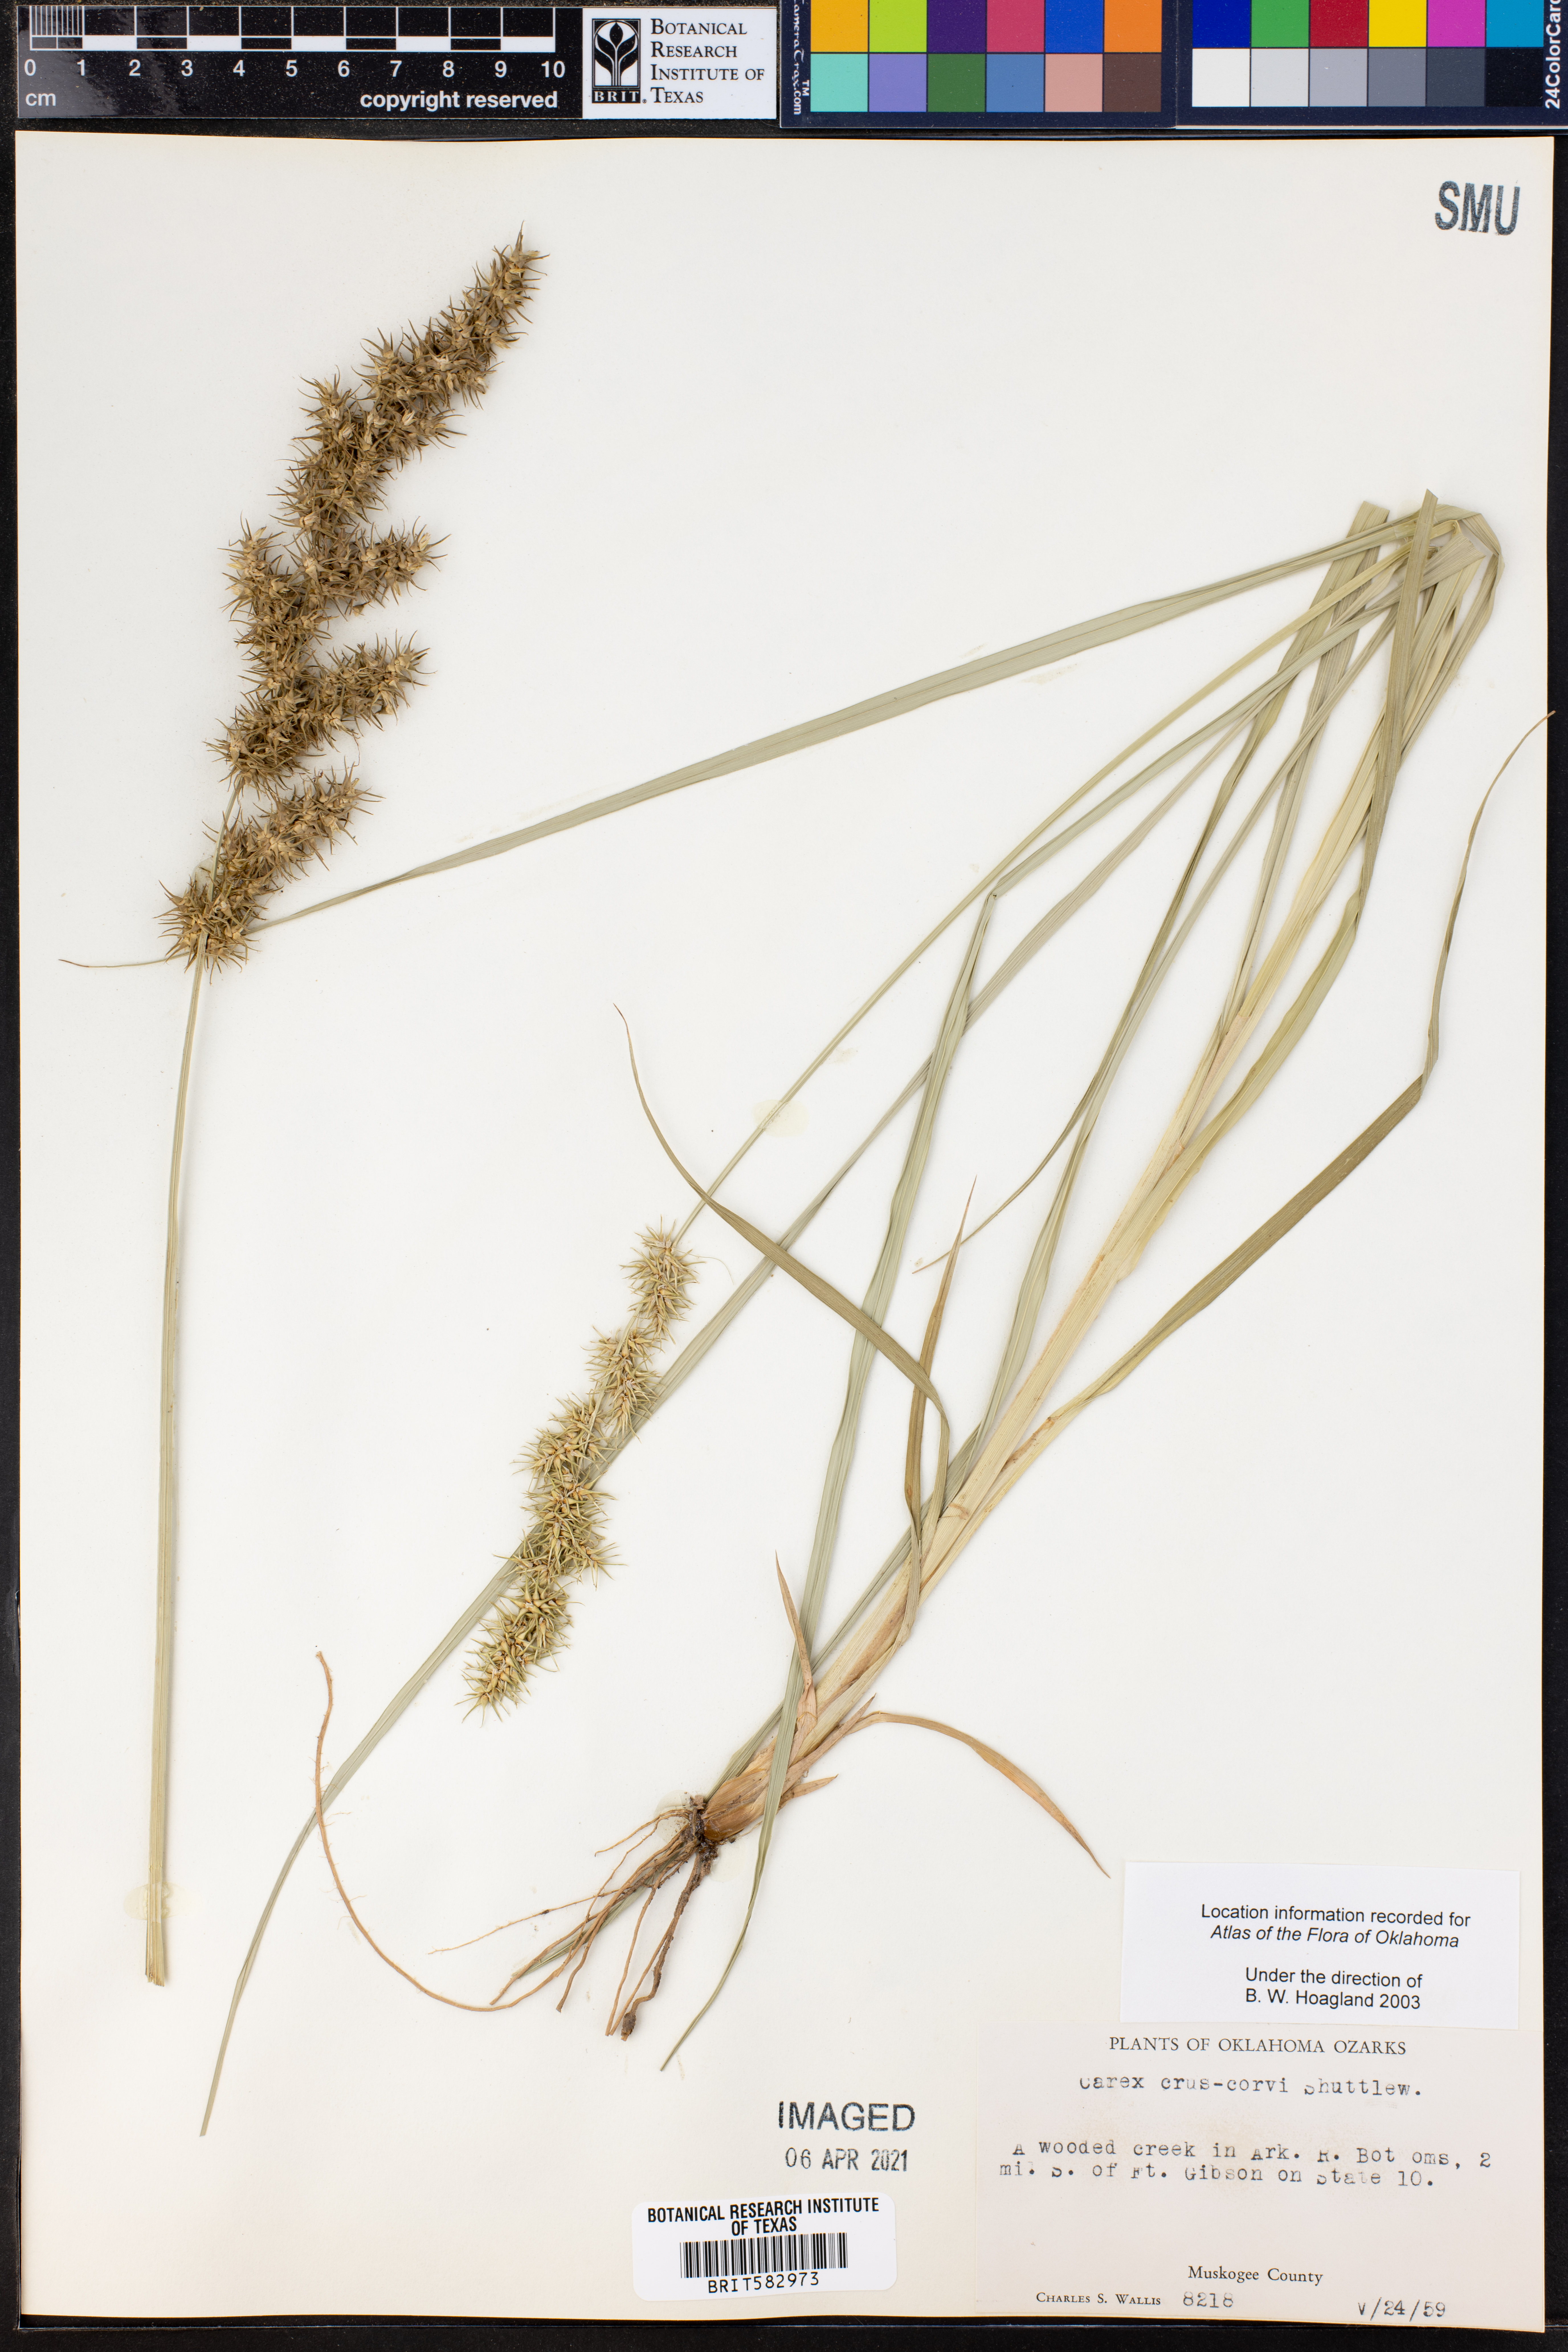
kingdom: Plantae
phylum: Tracheophyta
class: Liliopsida
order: Poales
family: Cyperaceae
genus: Carex
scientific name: Carex crus-corvi
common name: Crow-spur sedge
